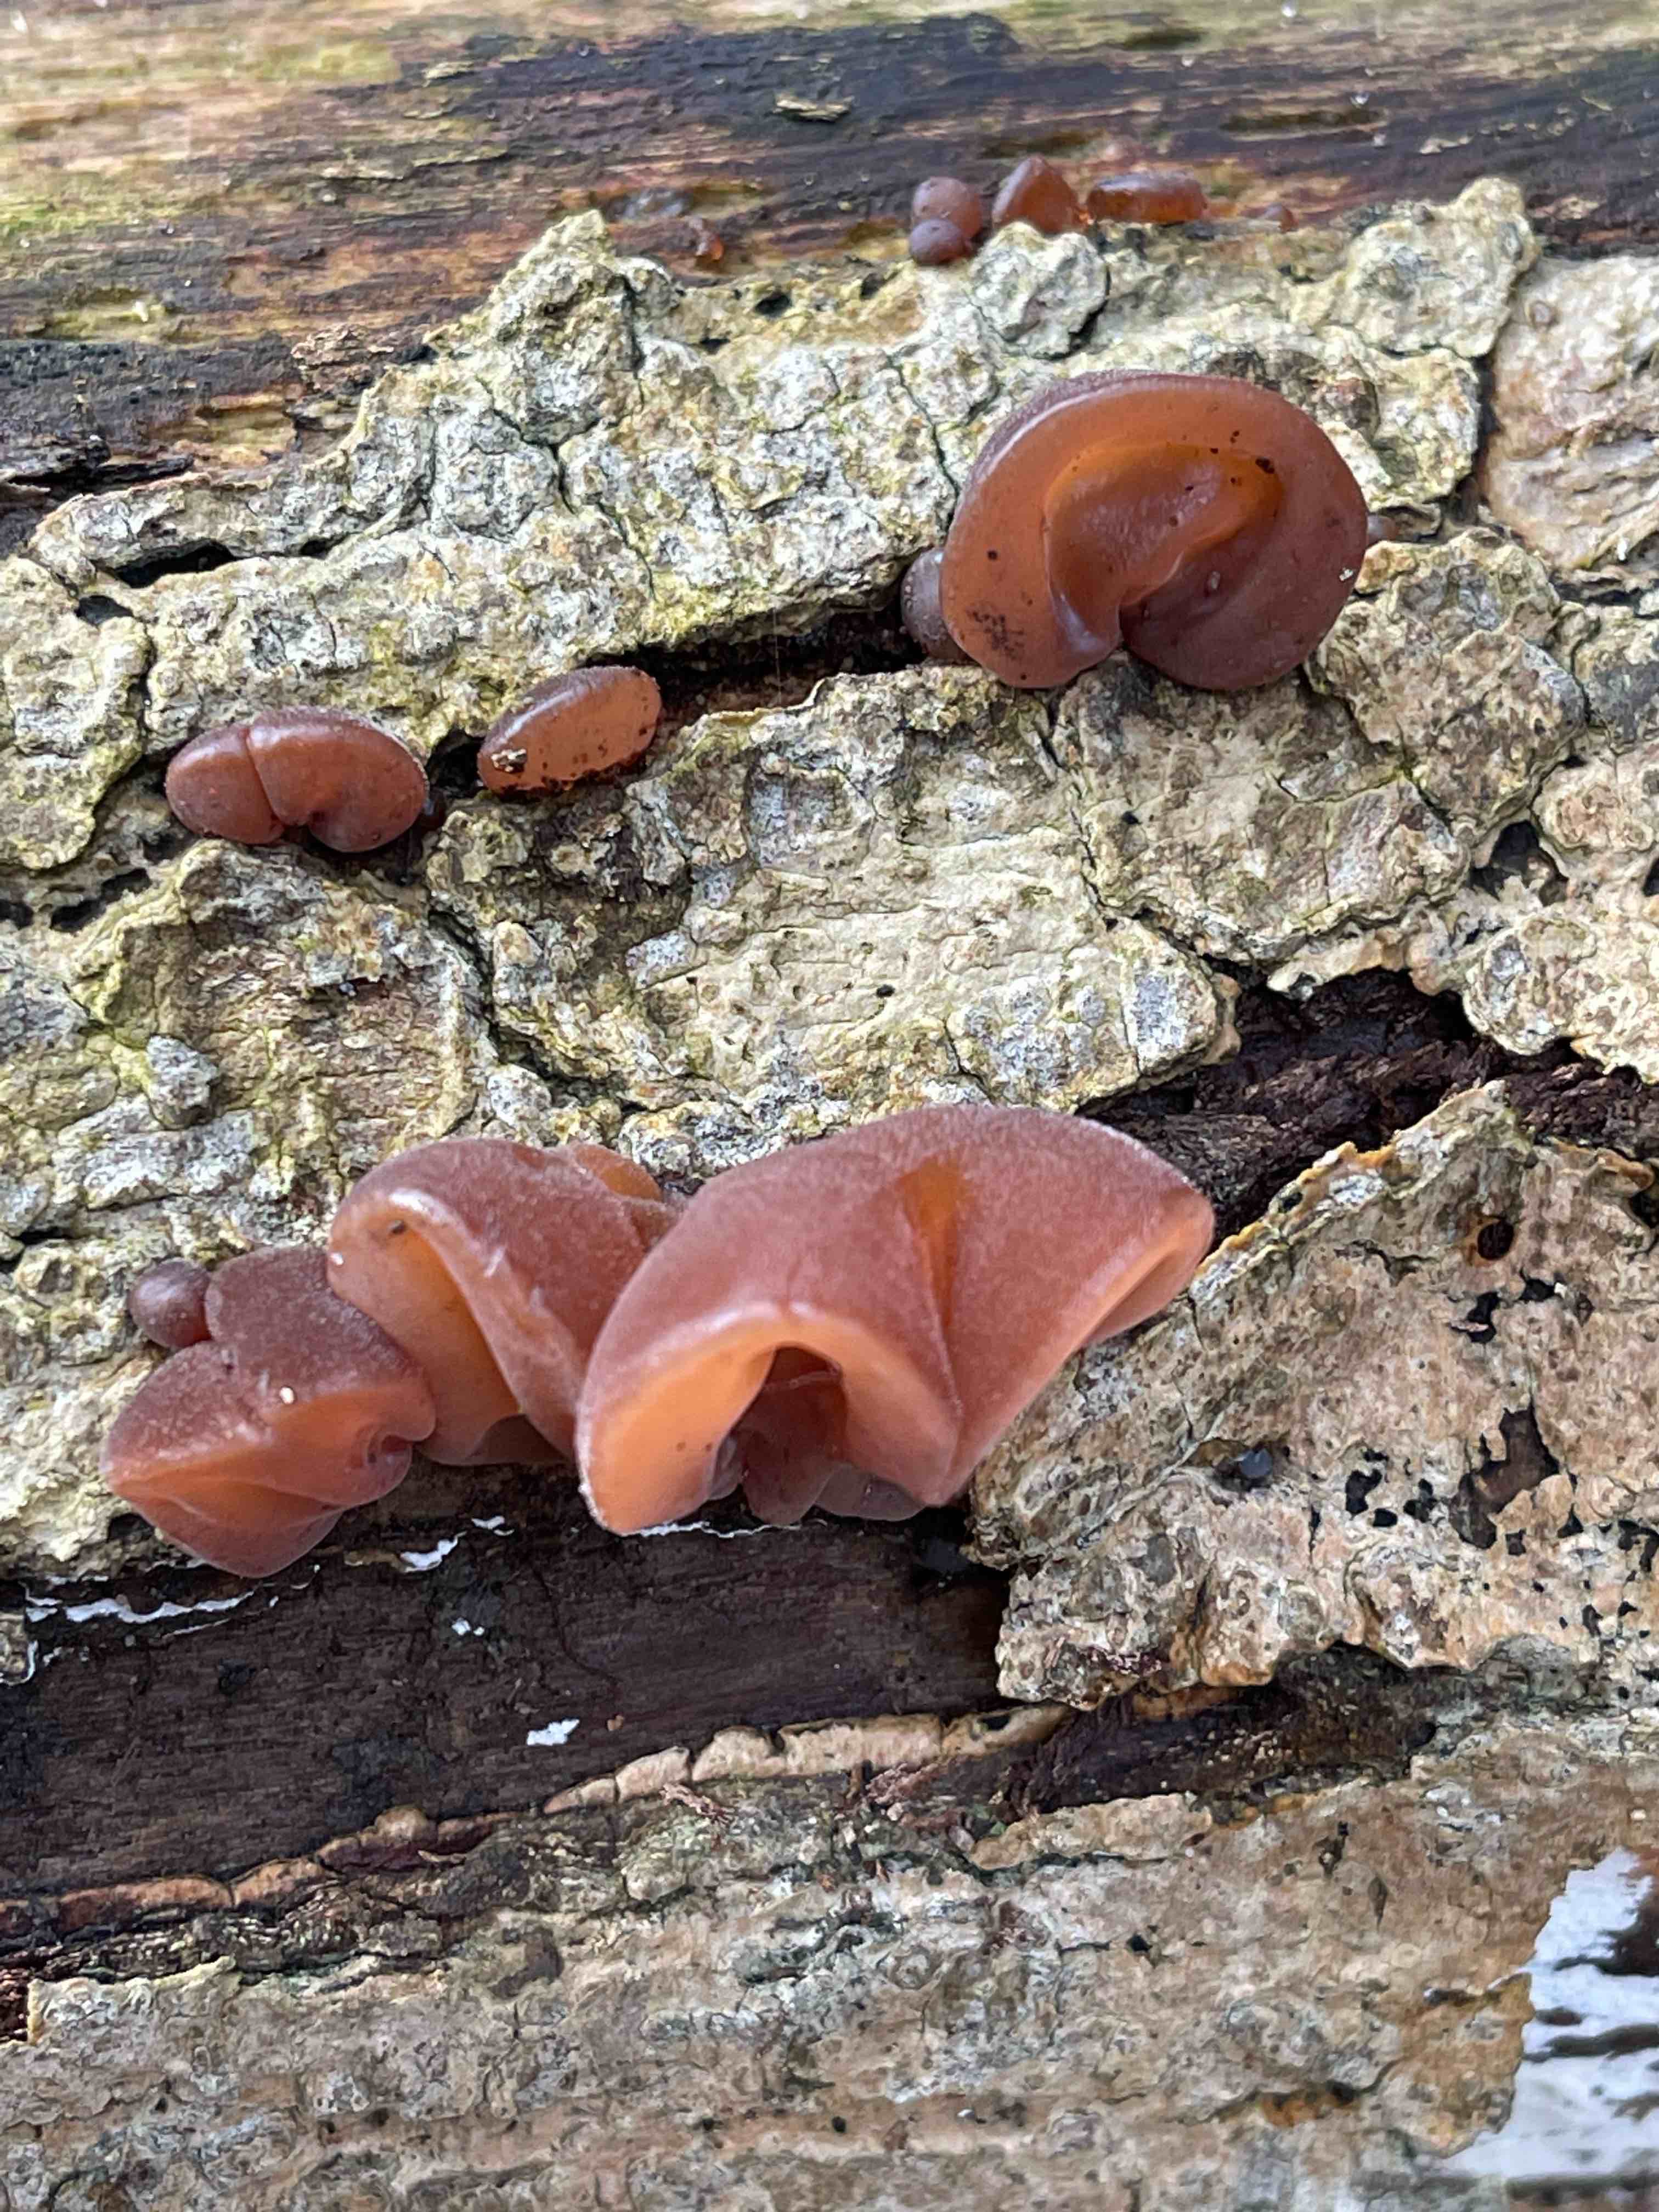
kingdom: Fungi
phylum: Basidiomycota
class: Agaricomycetes
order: Auriculariales
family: Auriculariaceae
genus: Auricularia
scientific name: Auricularia auricula-judae
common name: almindelig judasøre
